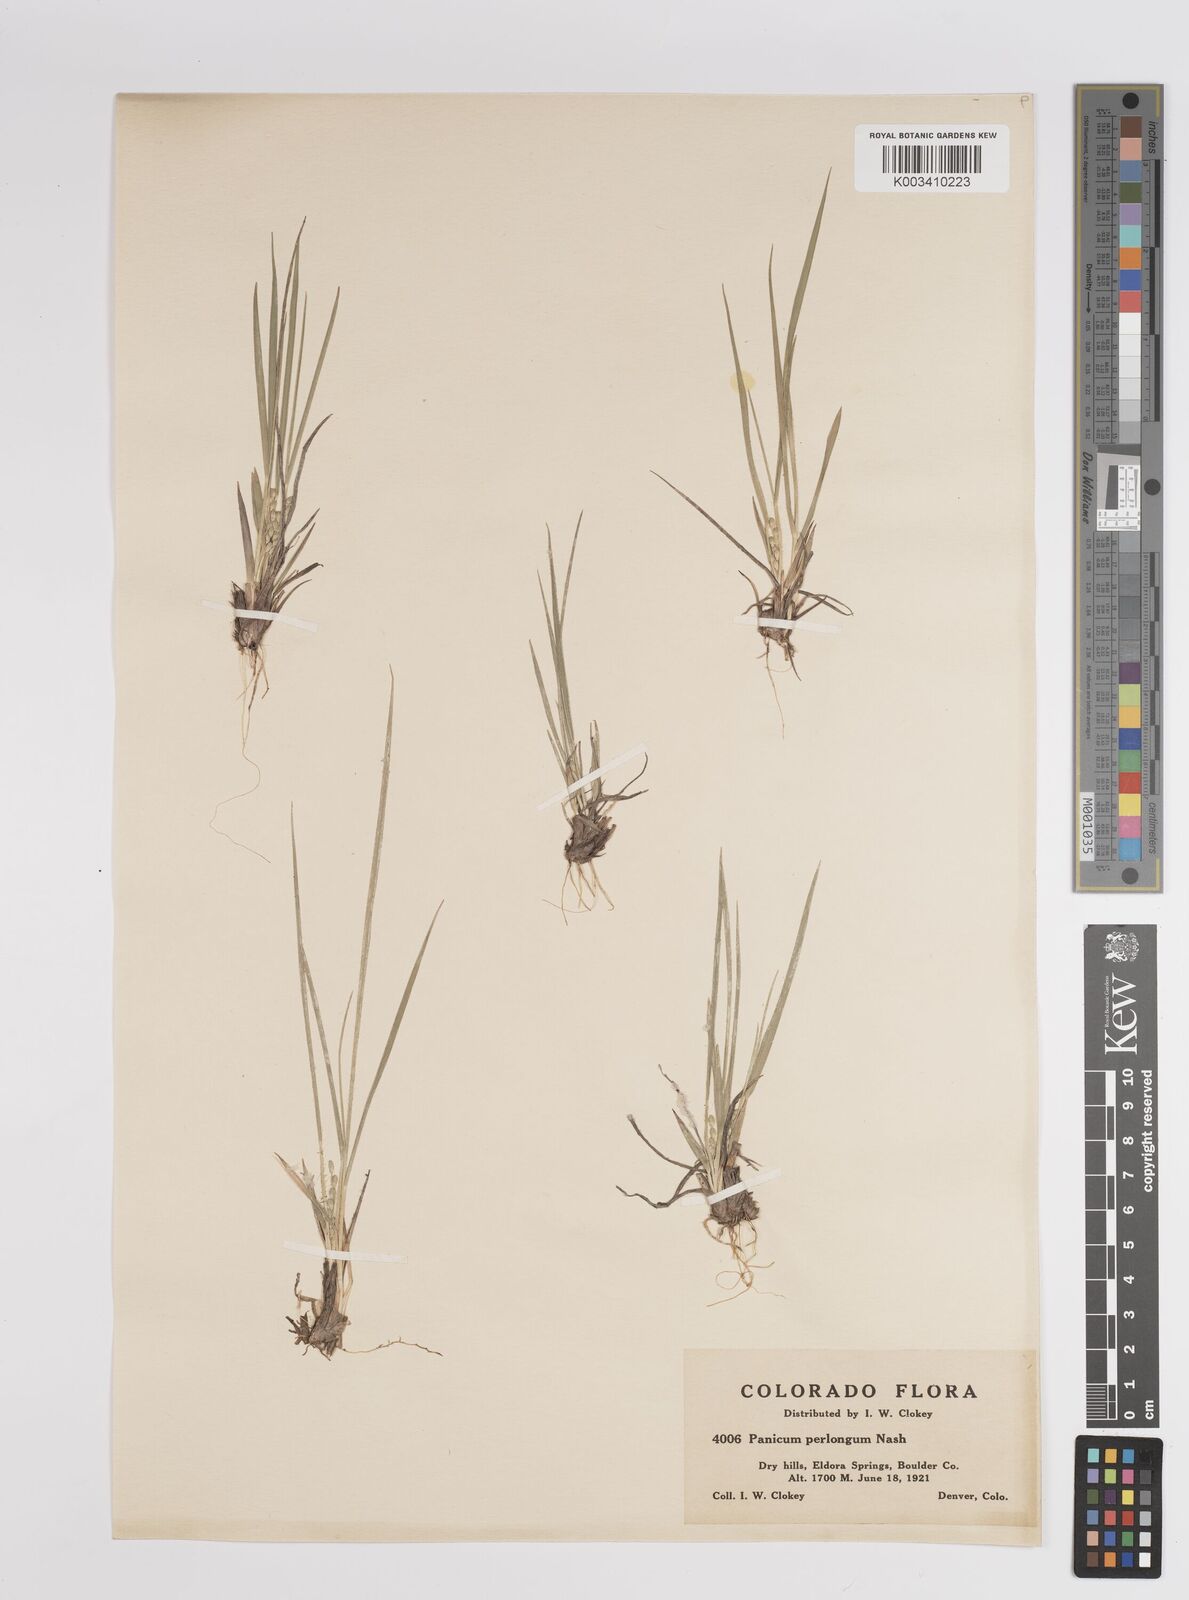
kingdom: Plantae
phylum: Tracheophyta
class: Liliopsida
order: Poales
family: Poaceae
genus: Dichanthelium
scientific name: Dichanthelium linearifolium
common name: Linear-leaved panicgrass
